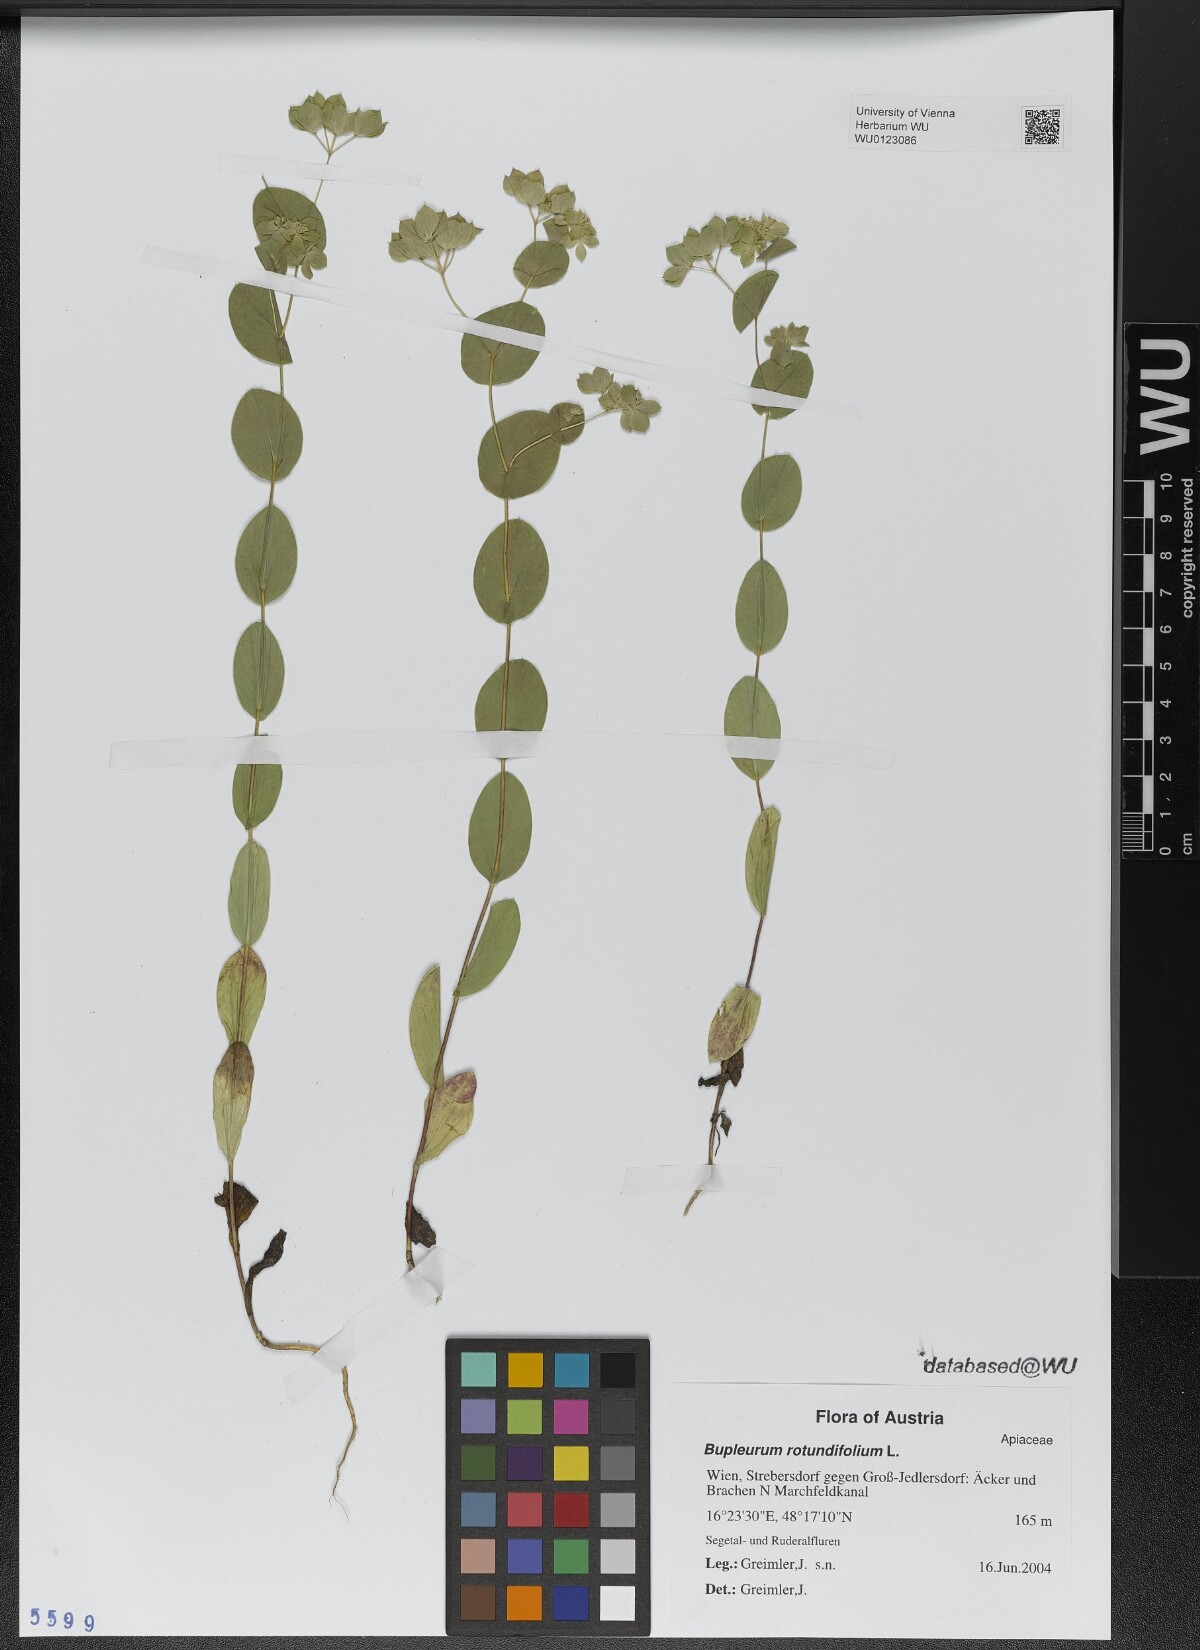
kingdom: Plantae
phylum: Tracheophyta
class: Magnoliopsida
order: Apiales
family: Apiaceae
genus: Bupleurum
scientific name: Bupleurum rotundifolium
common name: Thorow-wax
